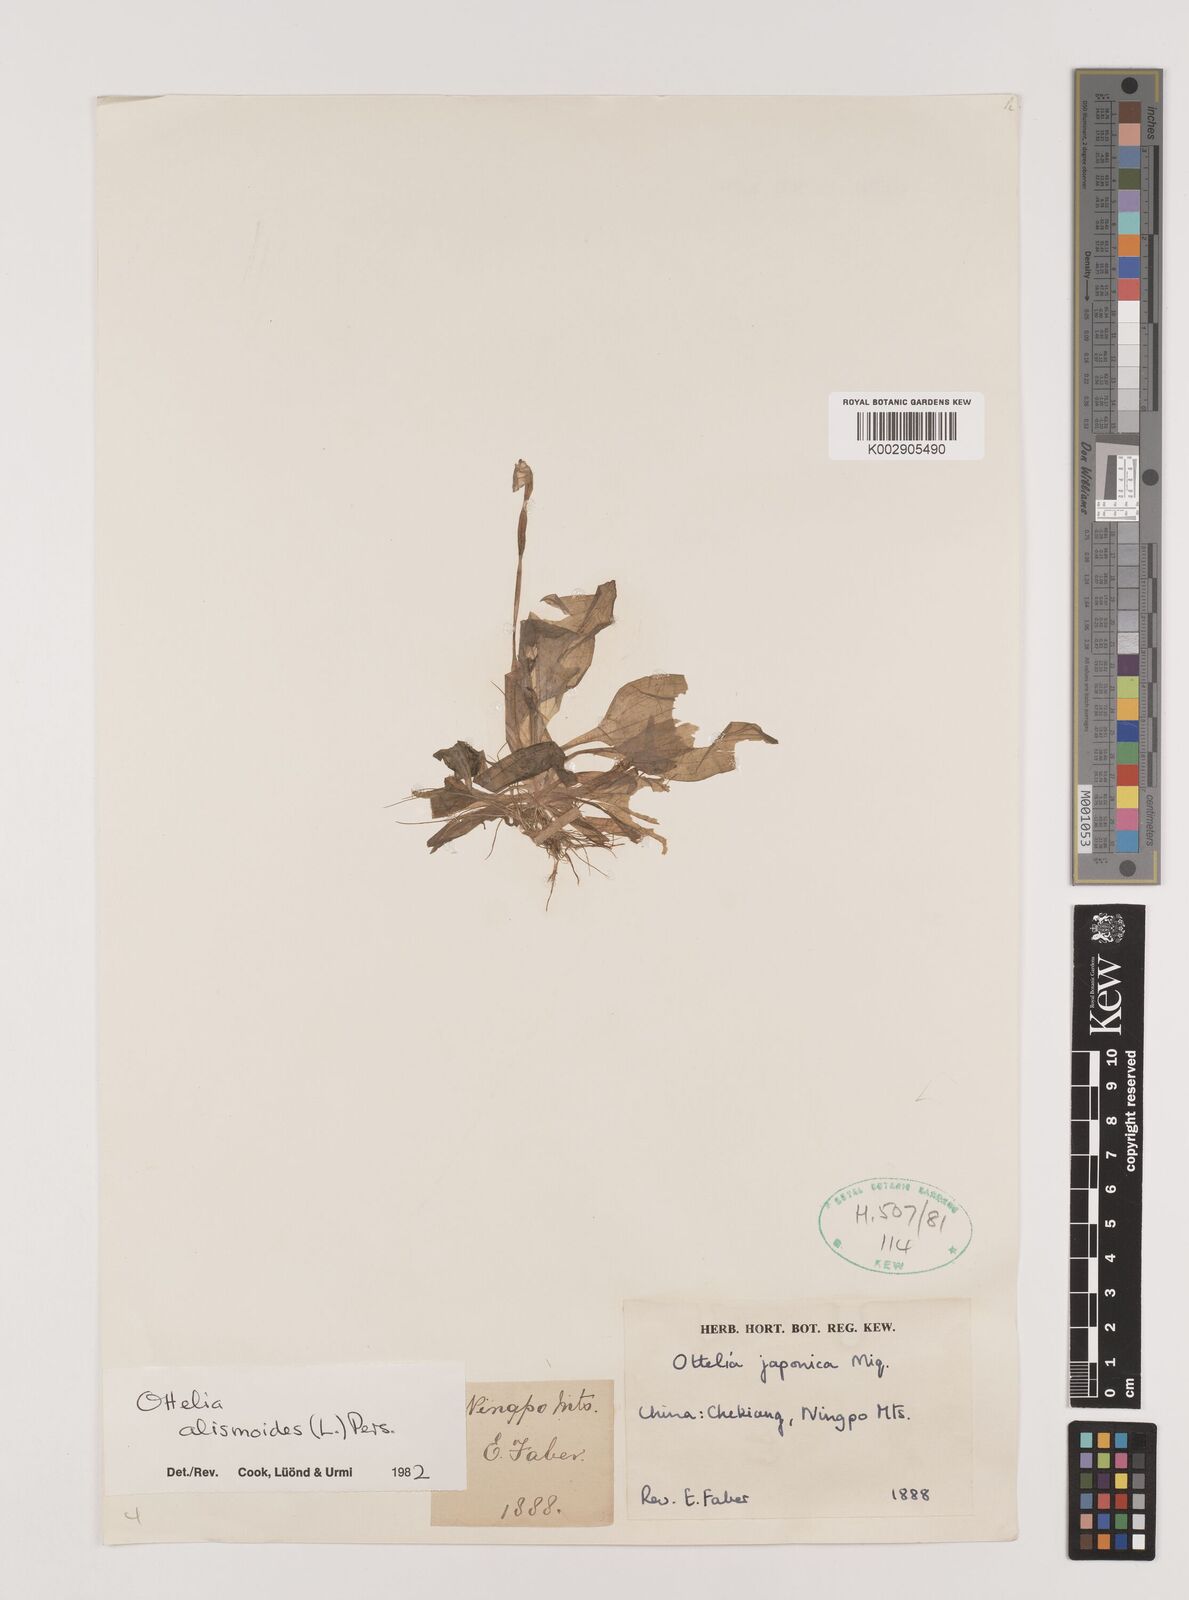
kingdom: Plantae
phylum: Tracheophyta
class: Liliopsida
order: Alismatales
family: Hydrocharitaceae
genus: Ottelia
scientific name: Ottelia alismoides
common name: Duck-lettuce
